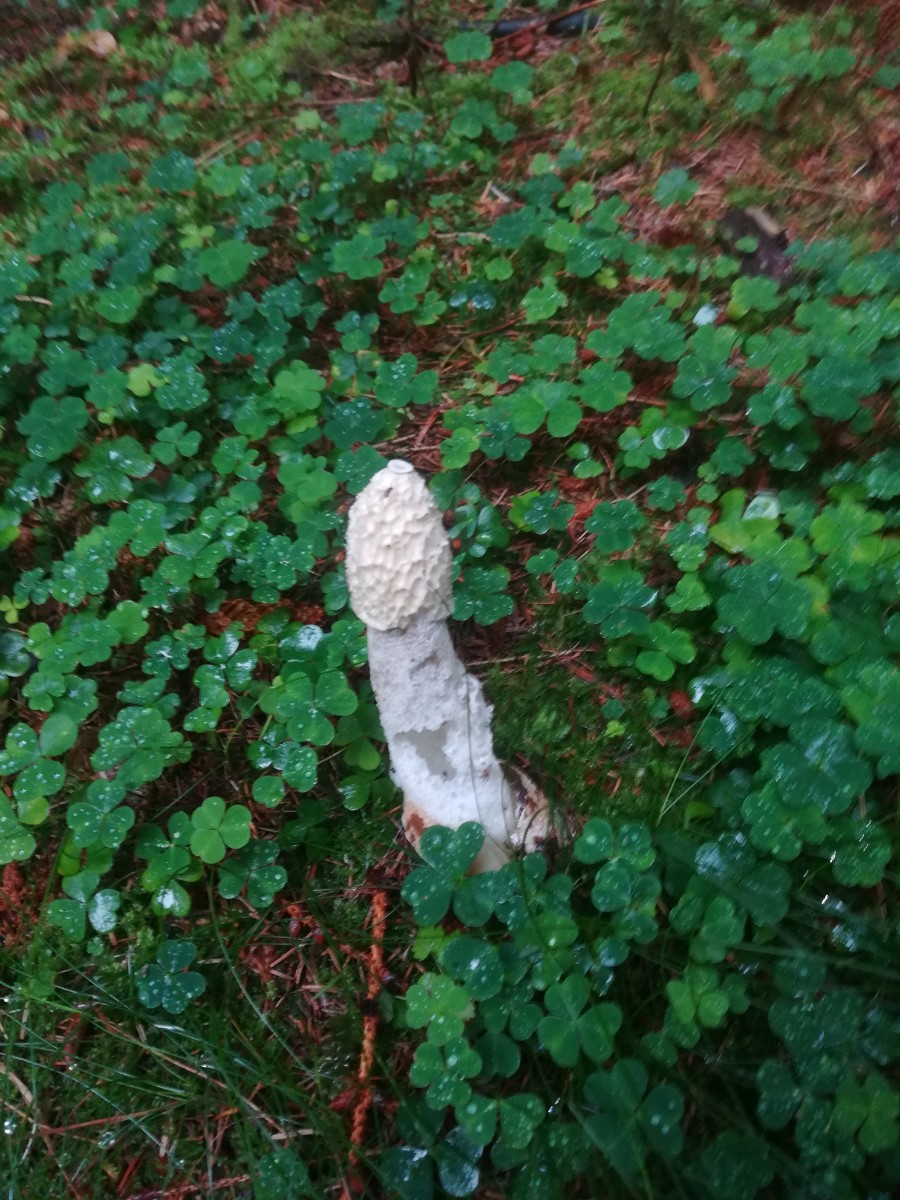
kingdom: Fungi
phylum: Basidiomycota
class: Agaricomycetes
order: Phallales
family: Phallaceae
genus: Phallus
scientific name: Phallus impudicus
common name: almindelig stinksvamp
